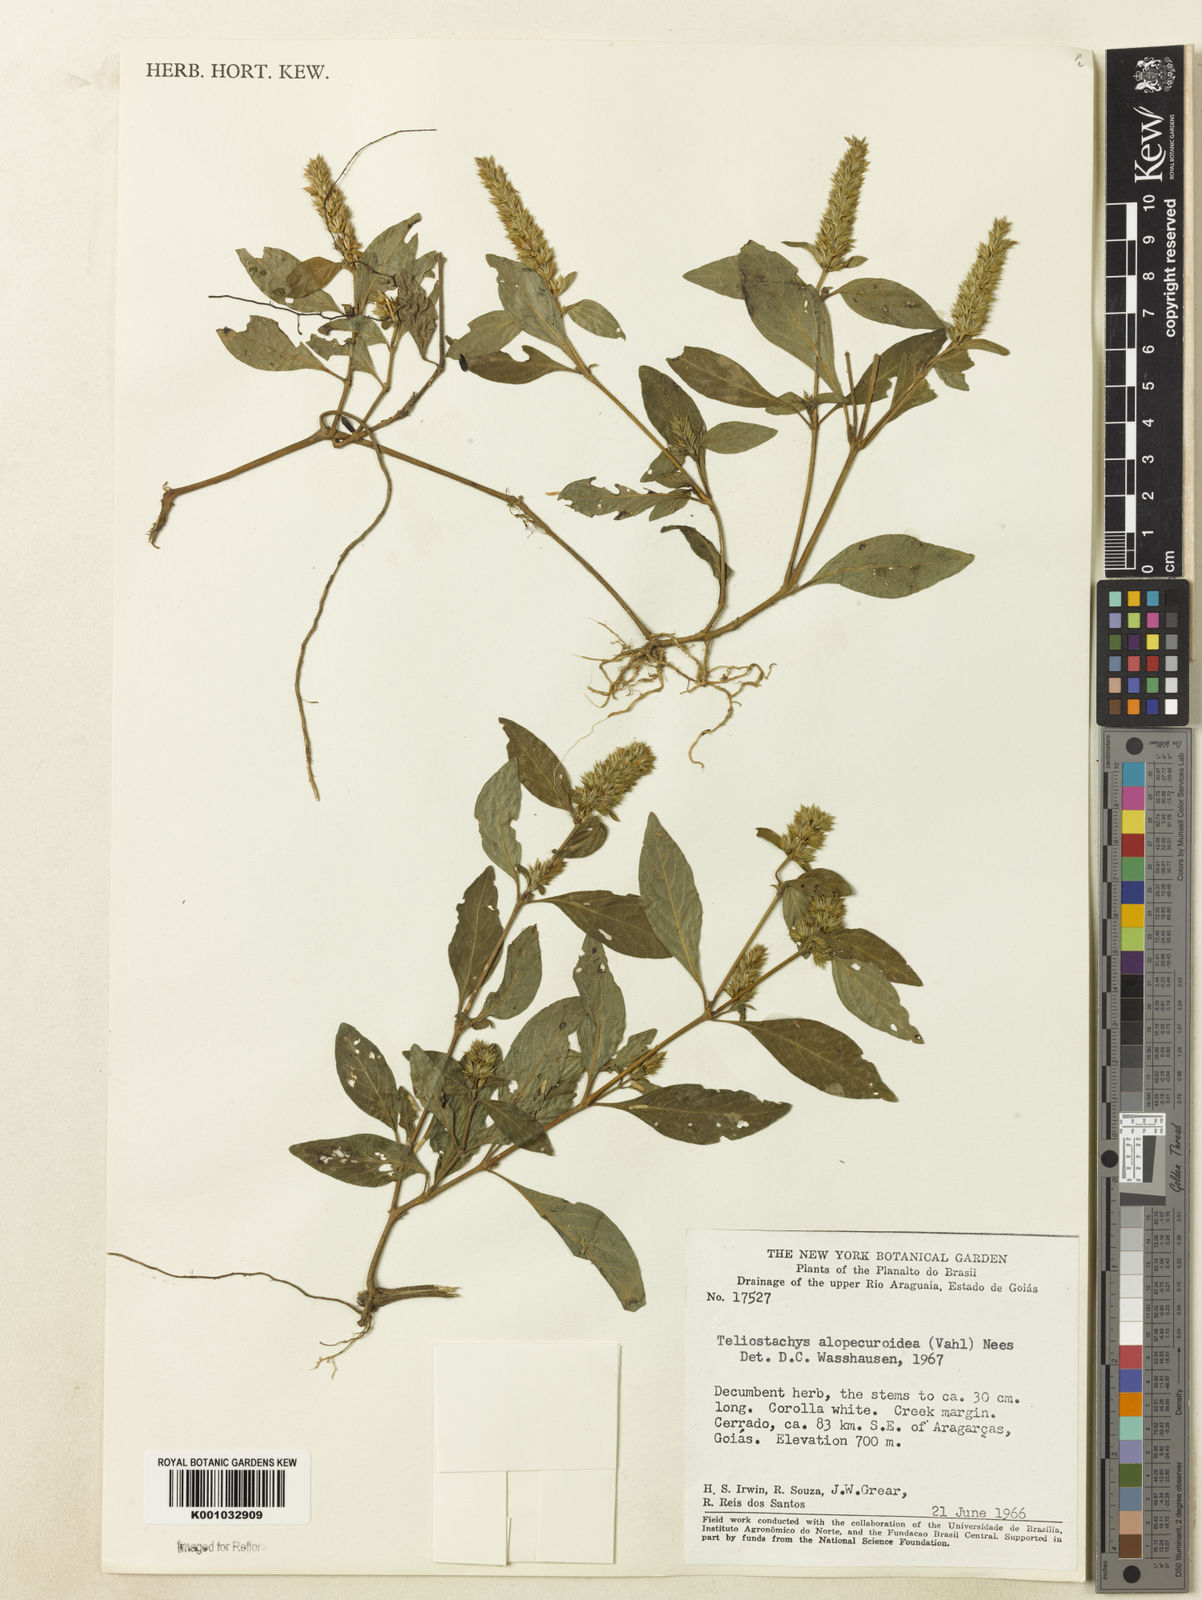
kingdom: Plantae
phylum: Tracheophyta
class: Magnoliopsida
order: Lamiales
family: Acanthaceae
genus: Lepidagathis
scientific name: Lepidagathis alopecuroidea
